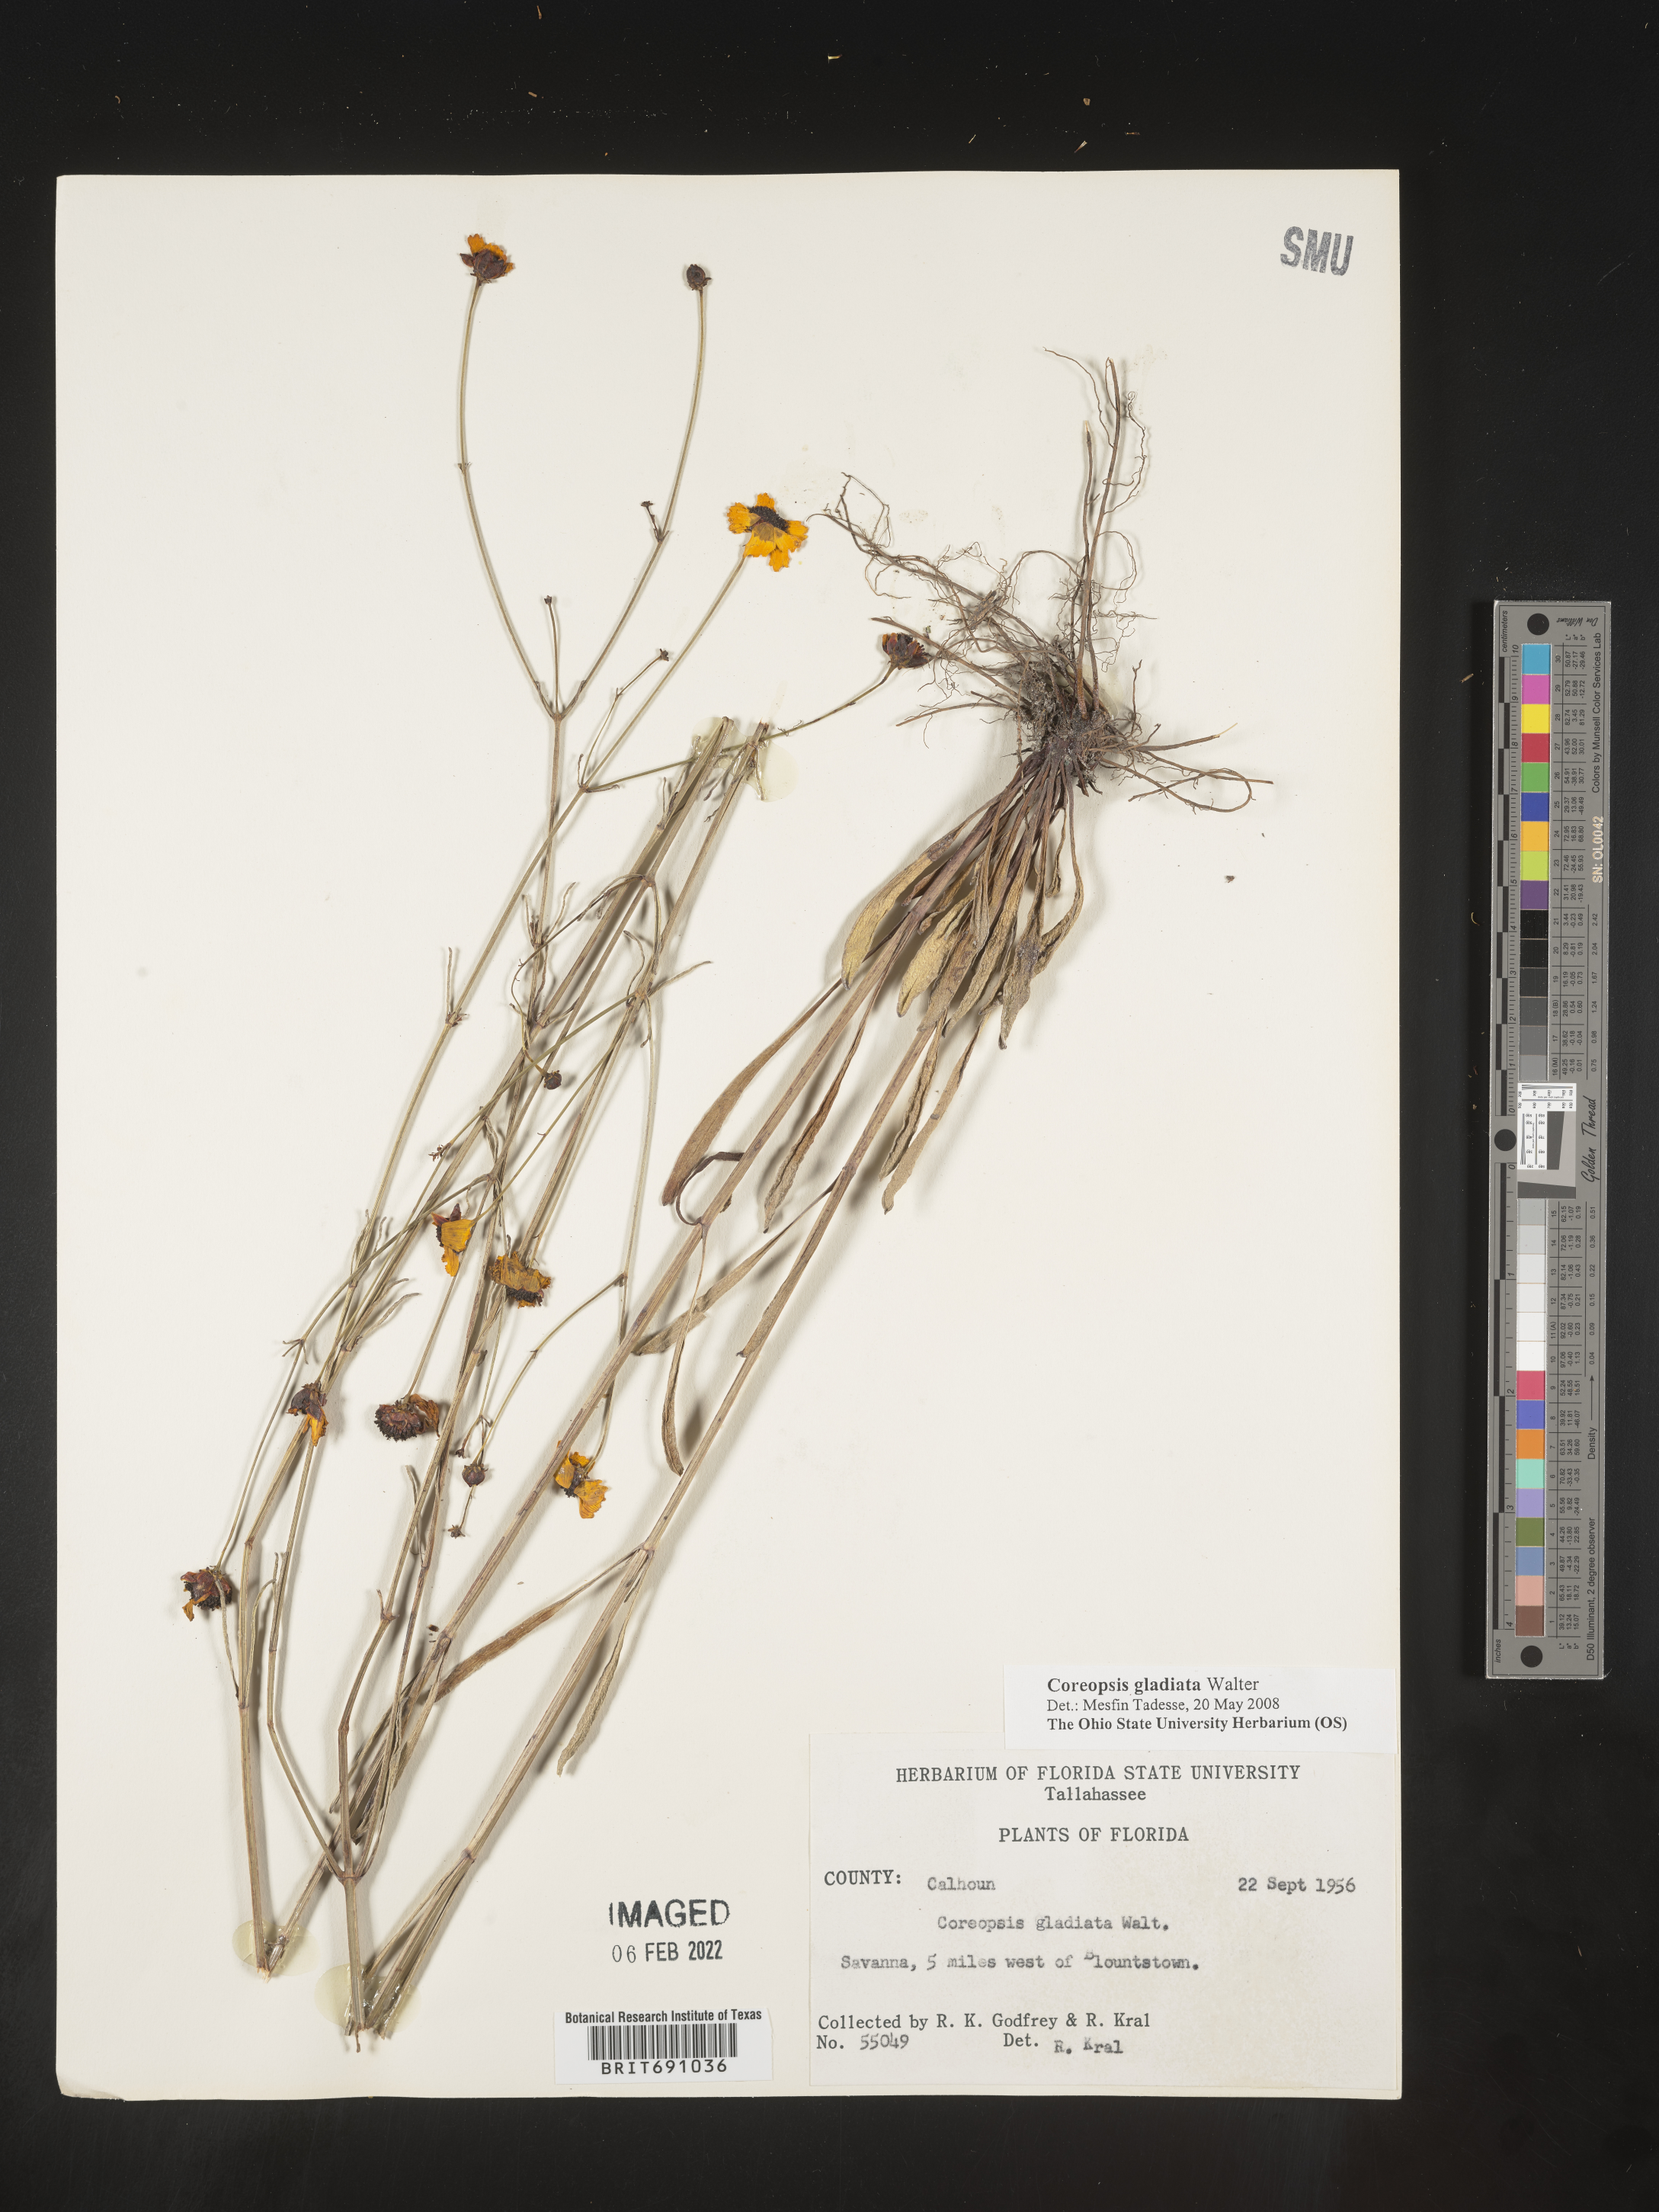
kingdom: Plantae
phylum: Tracheophyta
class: Magnoliopsida
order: Asterales
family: Asteraceae
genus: Coreopsis
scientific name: Coreopsis gladiata
